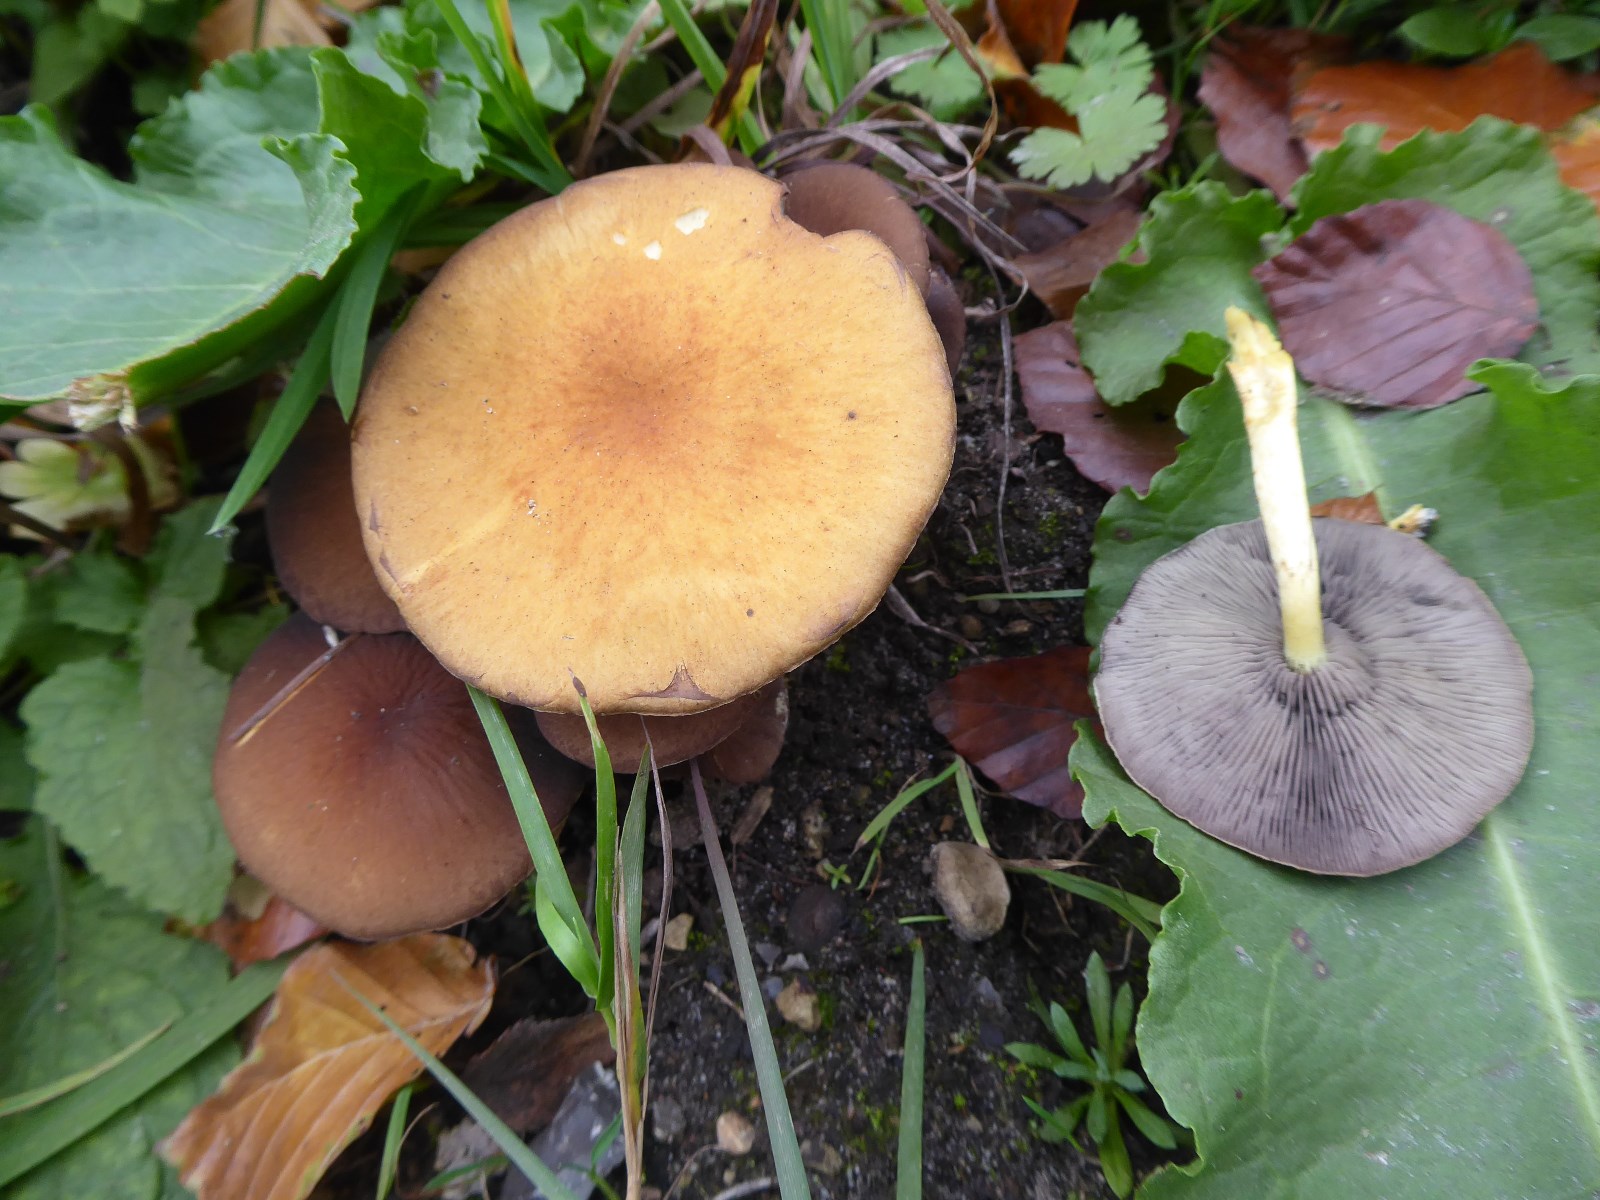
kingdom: Fungi
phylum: Basidiomycota
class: Agaricomycetes
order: Agaricales
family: Psathyrellaceae
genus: Psathyrella
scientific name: Psathyrella piluliformis
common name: lysstokket mørkhat
